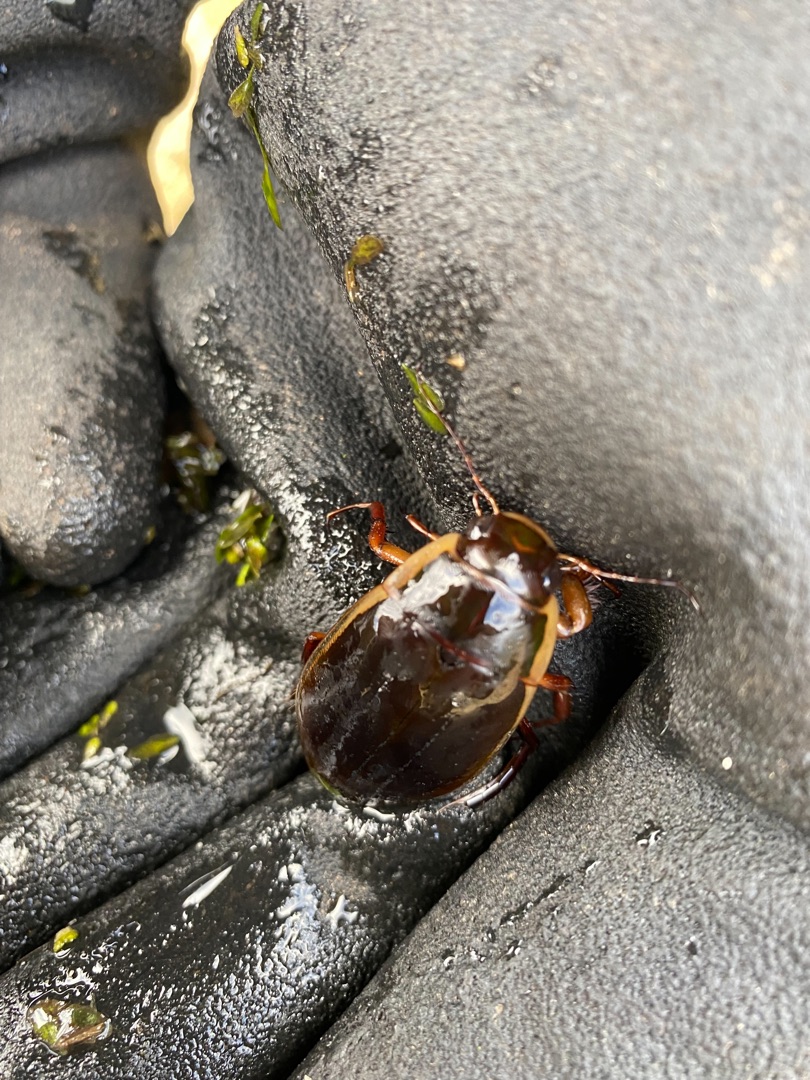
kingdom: Animalia
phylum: Arthropoda
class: Insecta
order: Coleoptera
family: Dytiscidae
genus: Dytiscus
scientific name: Dytiscus dimidiatus
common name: Rundhoftet vandkalv
